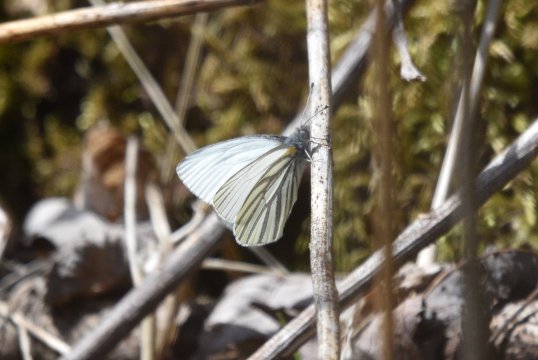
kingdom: Animalia
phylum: Arthropoda
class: Insecta
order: Lepidoptera
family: Pieridae
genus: Pieris
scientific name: Pieris oleracea
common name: Mustard White
